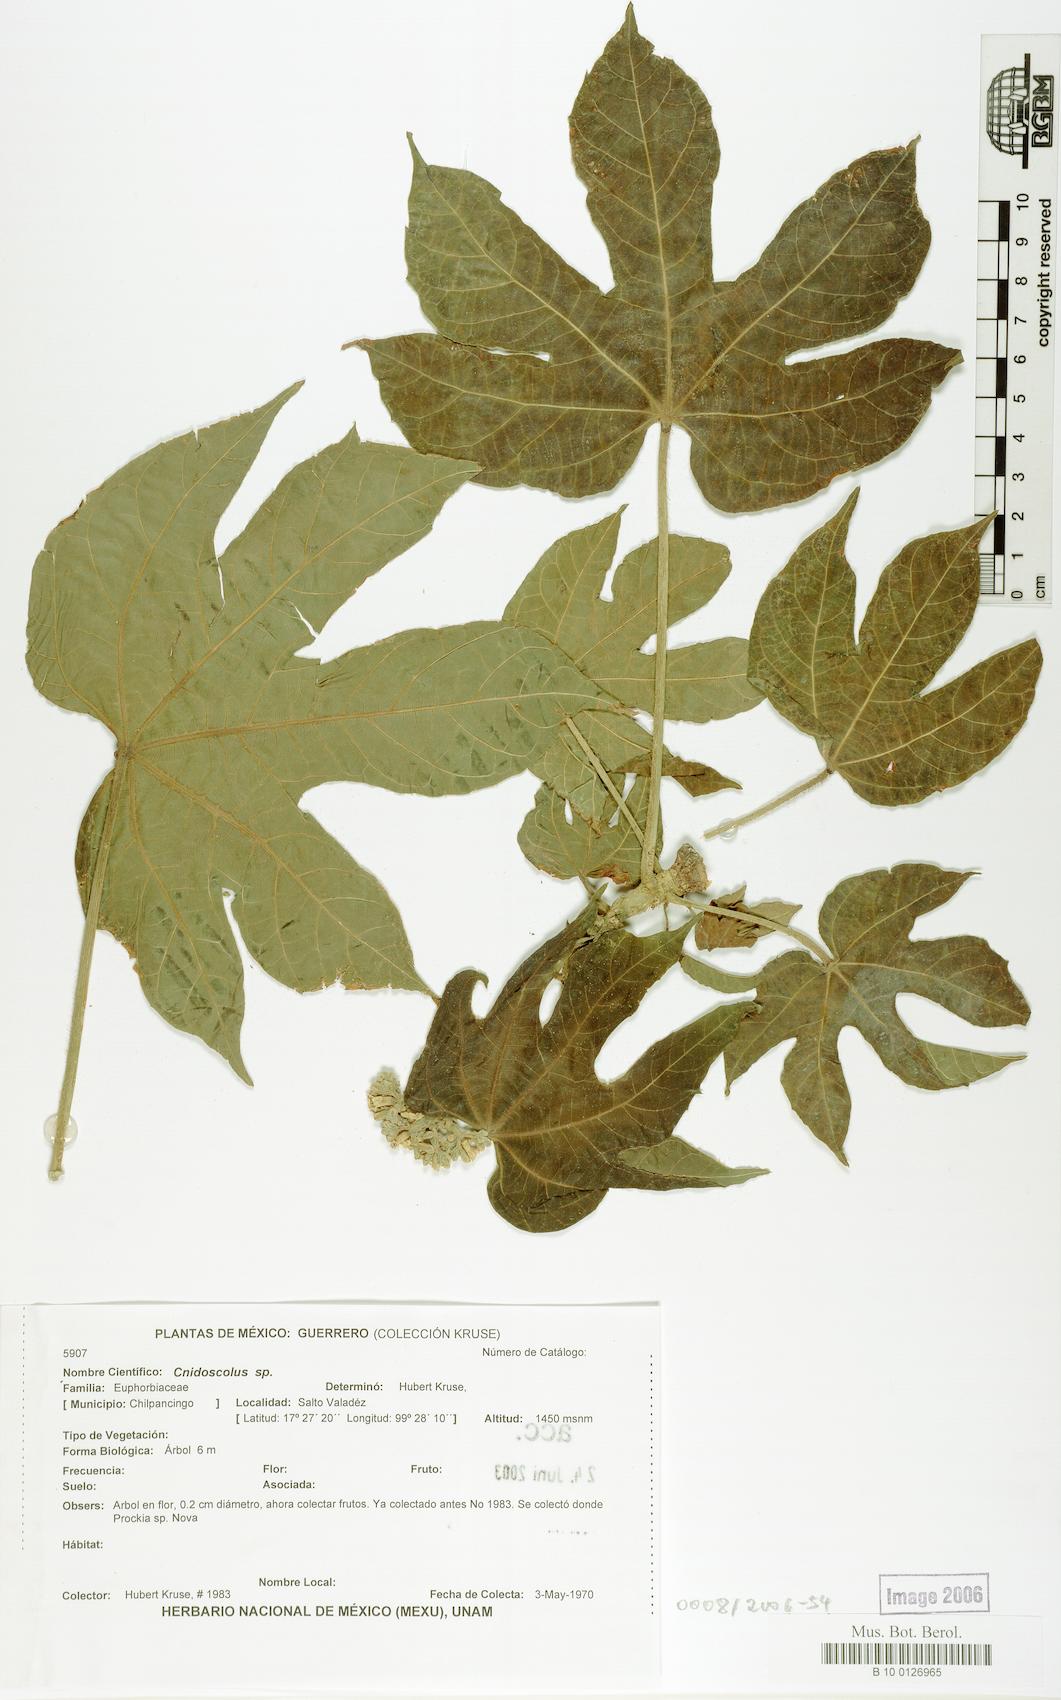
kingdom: Plantae
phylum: Tracheophyta
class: Magnoliopsida
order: Malpighiales
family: Euphorbiaceae
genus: Cnidoscolus
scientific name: Cnidoscolus multilobus
